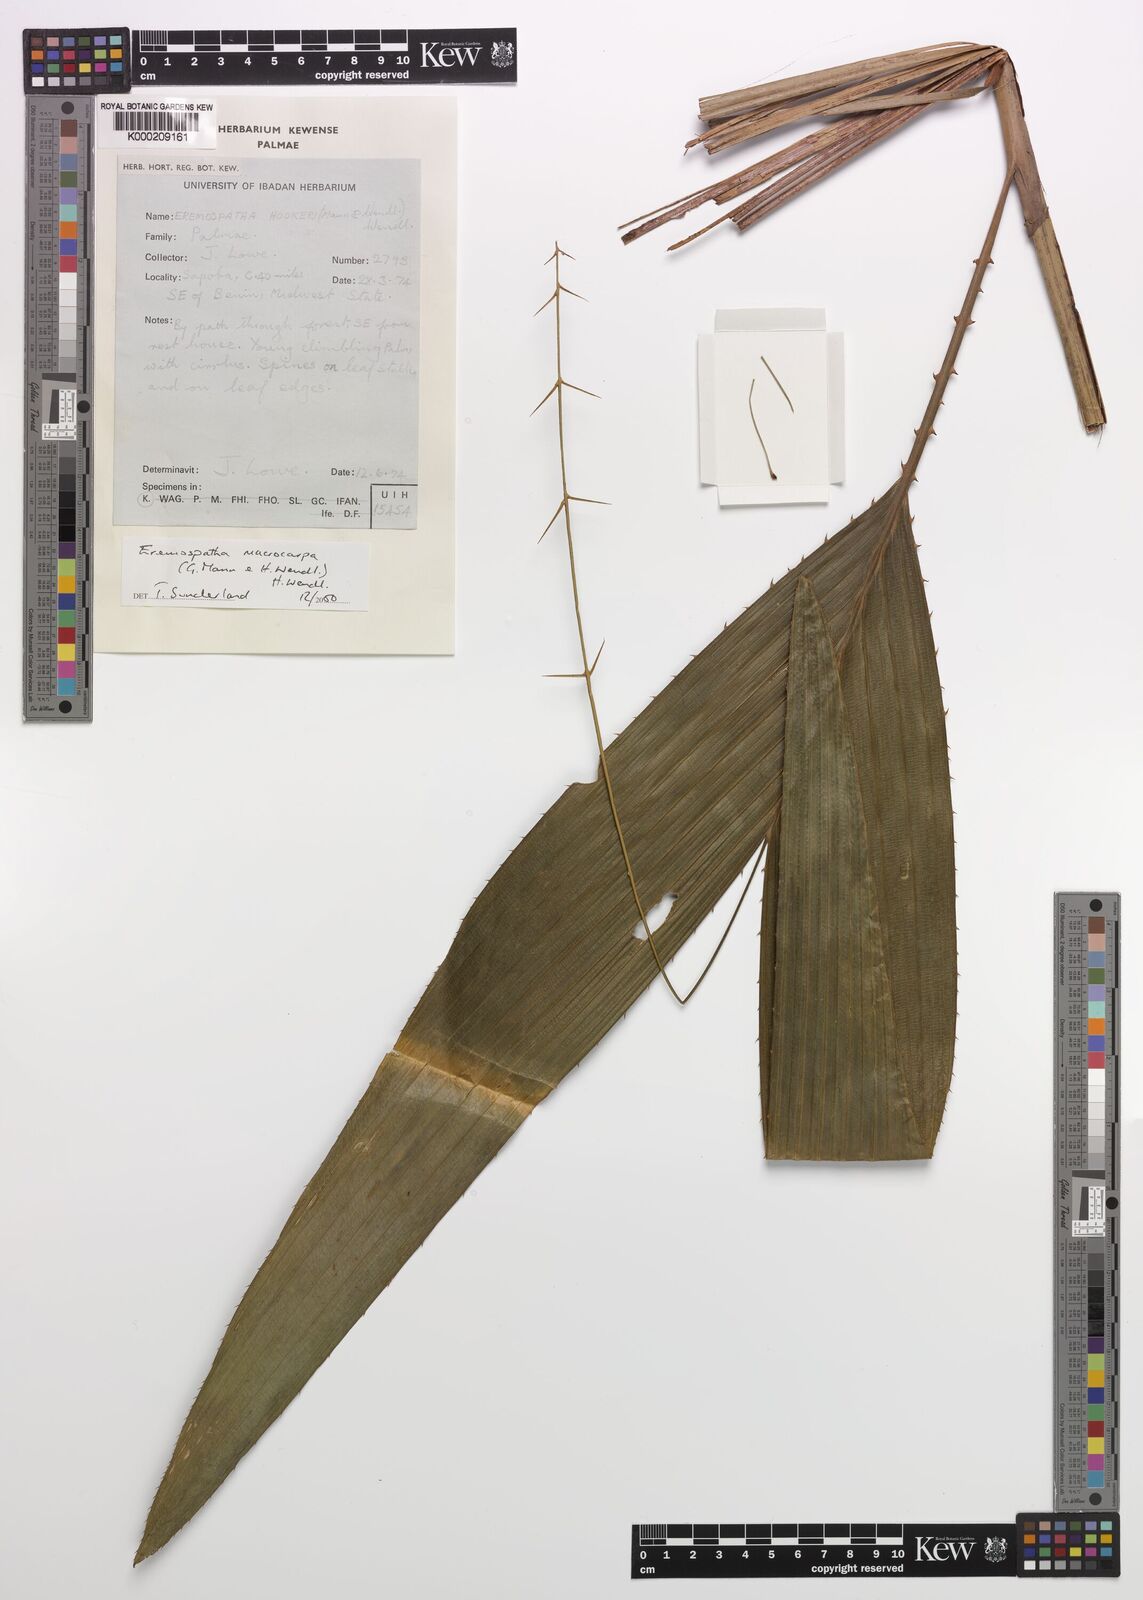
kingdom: Plantae
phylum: Tracheophyta
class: Liliopsida
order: Arecales
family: Arecaceae
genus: Eremospatha
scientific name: Eremospatha
